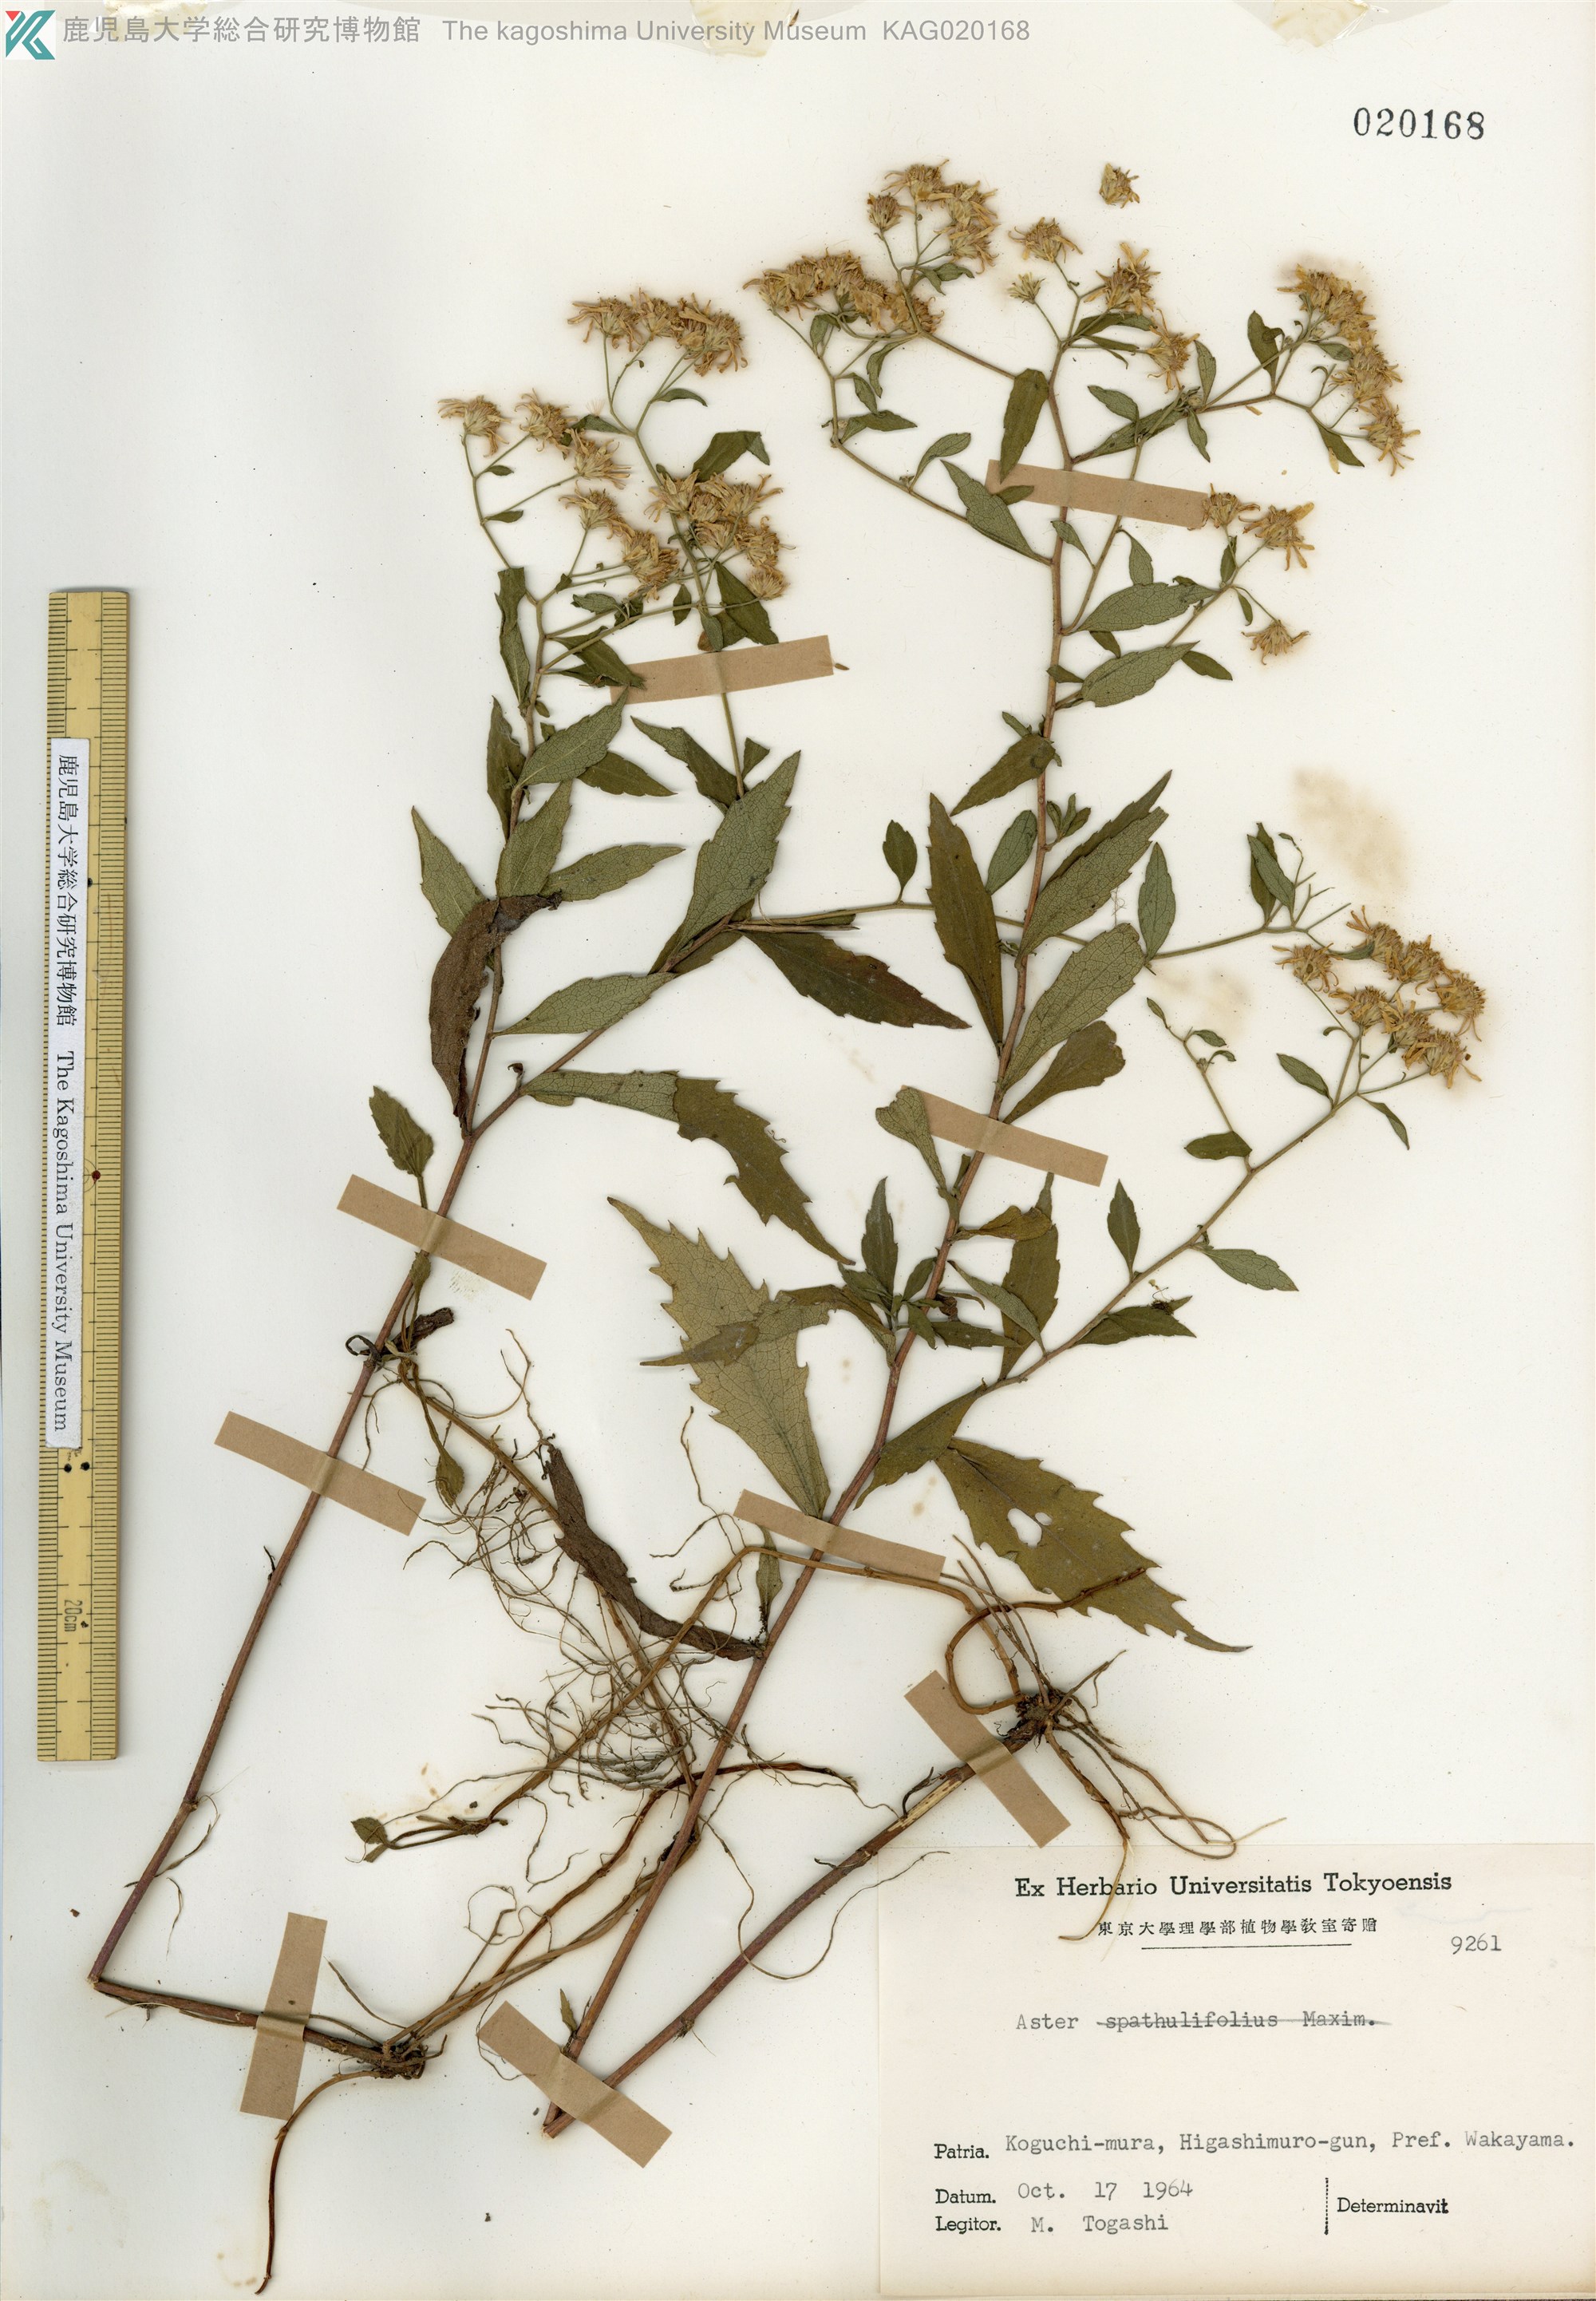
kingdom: Plantae
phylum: Tracheophyta
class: Magnoliopsida
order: Asterales
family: Asteraceae
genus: Aster
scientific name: Aster ageratoides
